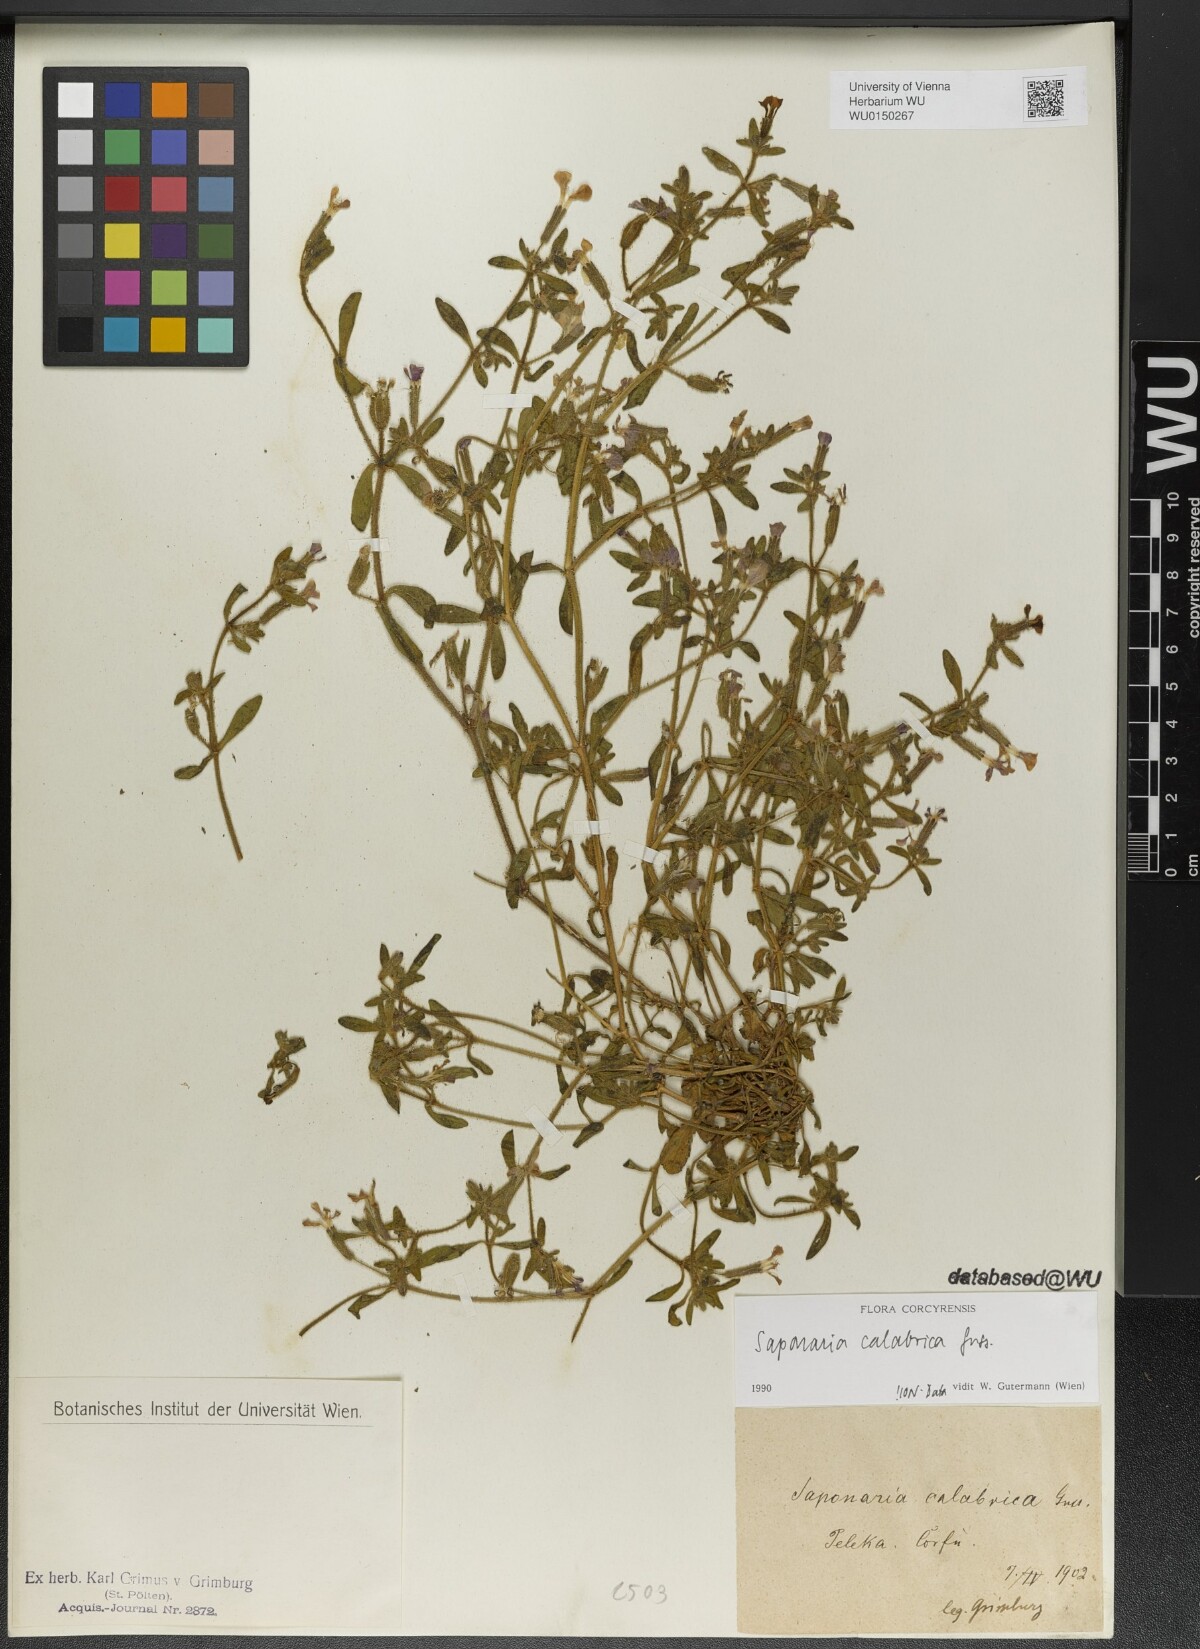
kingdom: Plantae
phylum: Tracheophyta
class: Magnoliopsida
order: Caryophyllales
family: Caryophyllaceae
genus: Saponaria
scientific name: Saponaria calabrica
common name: Adriatic soapwort
